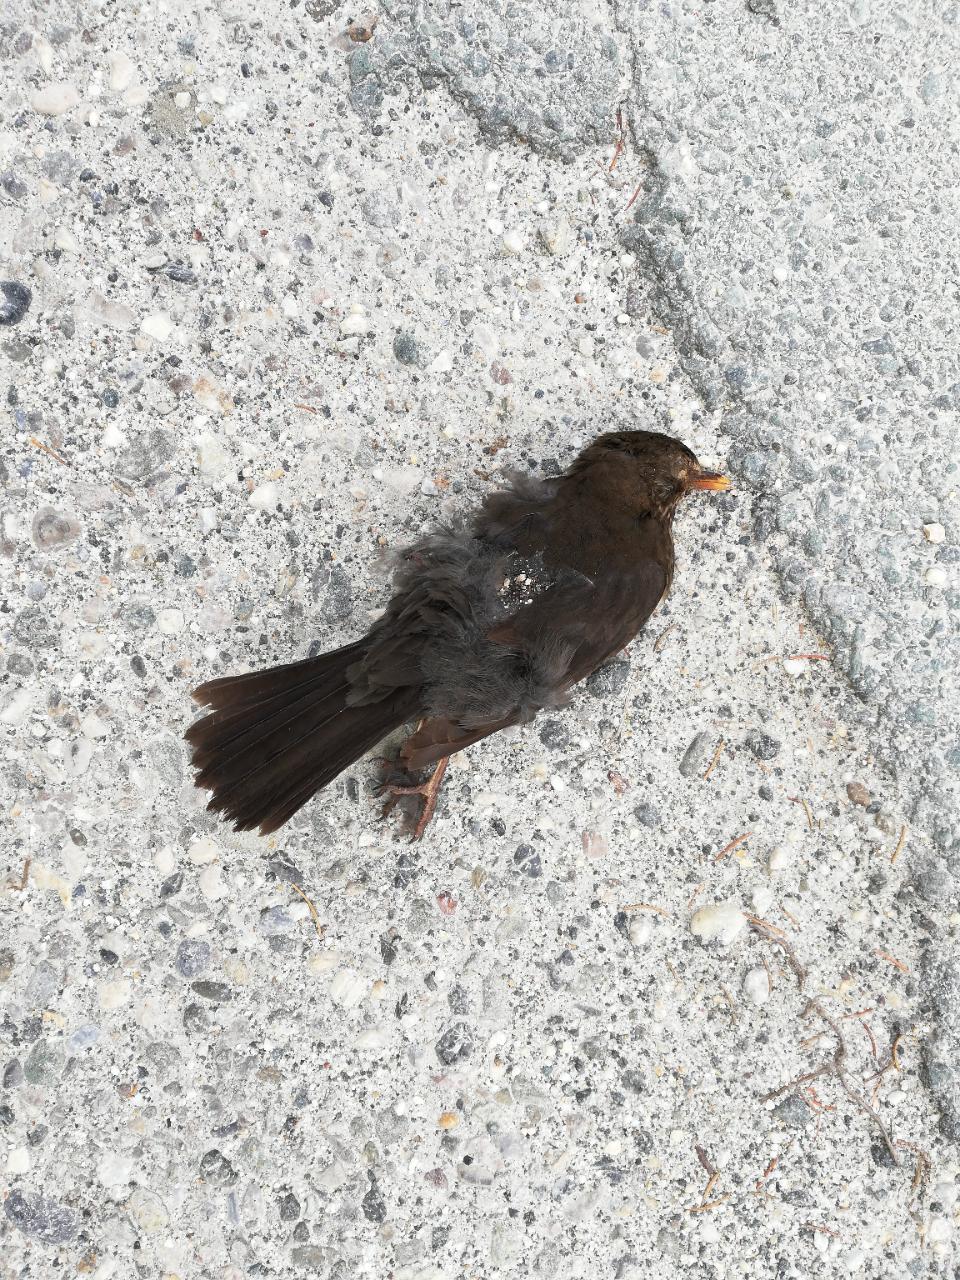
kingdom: Animalia
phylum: Chordata
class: Aves
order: Passeriformes
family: Turdidae
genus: Turdus
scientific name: Turdus merula
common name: Common blackbird
